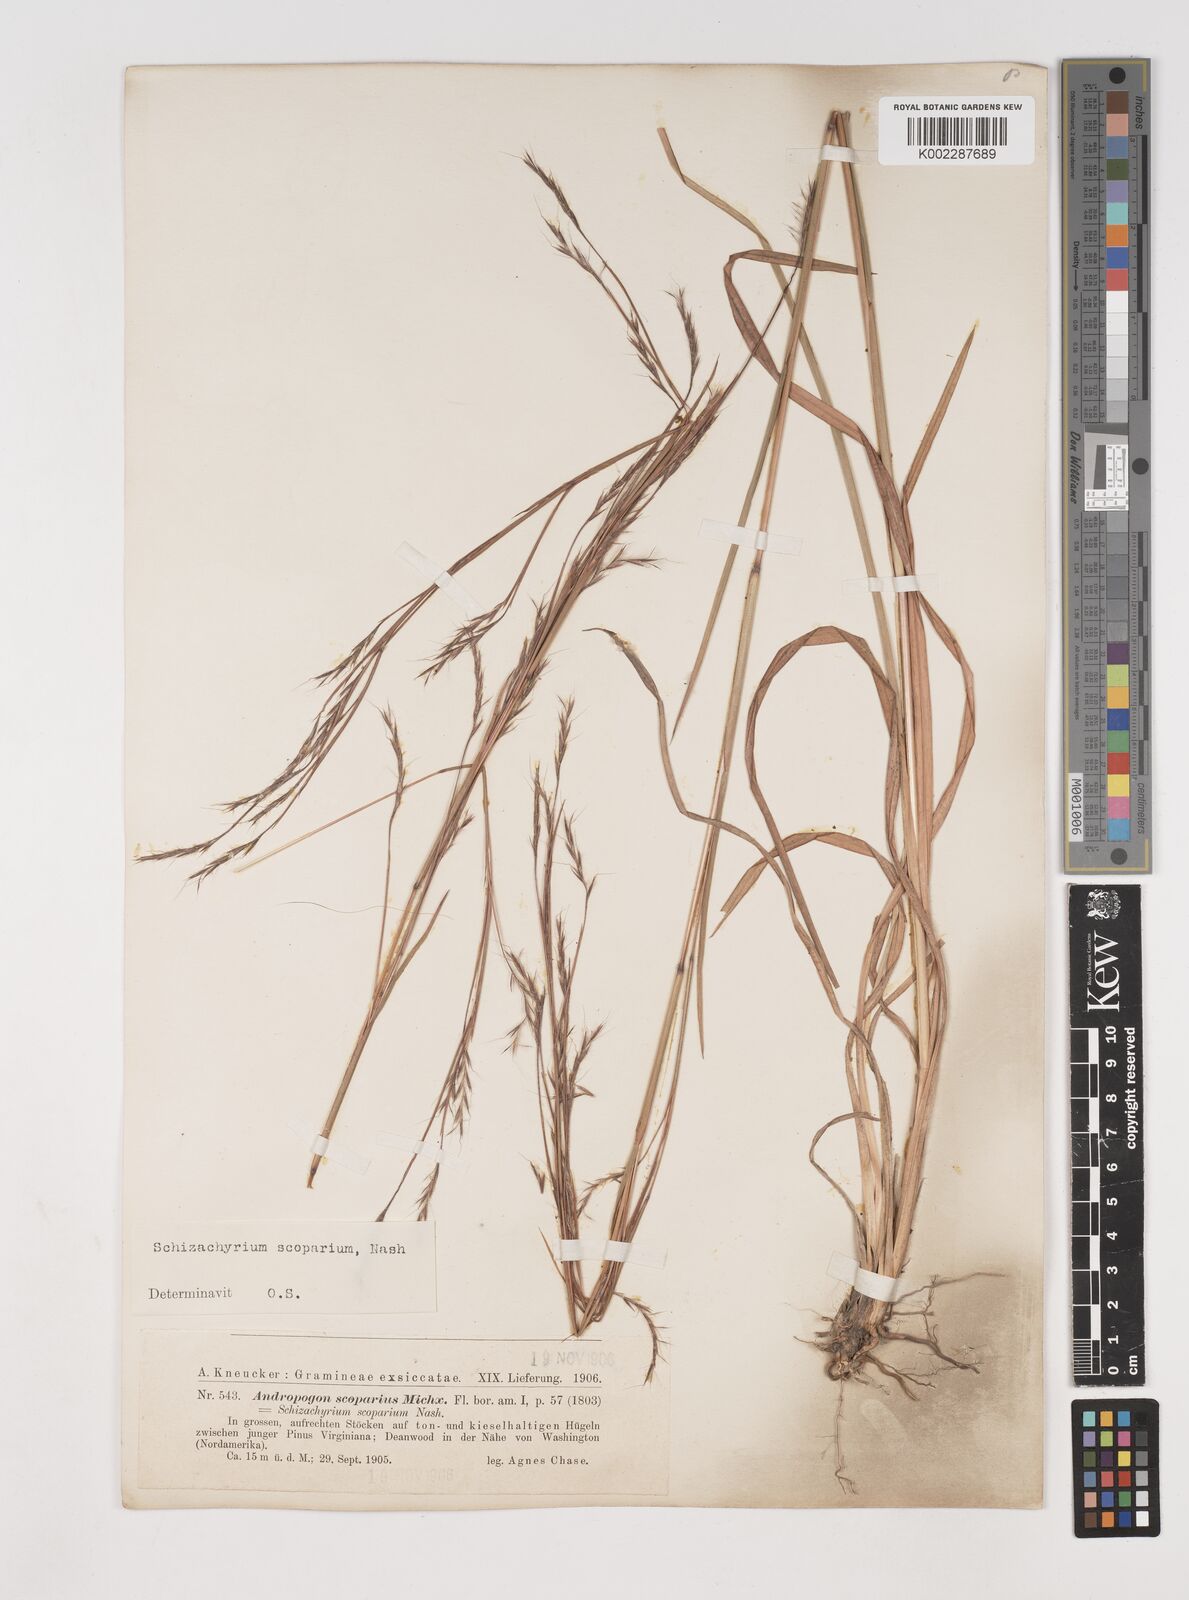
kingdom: Plantae
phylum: Tracheophyta
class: Liliopsida
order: Poales
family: Poaceae
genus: Schizachyrium
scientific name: Schizachyrium scoparium
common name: Little bluestem
